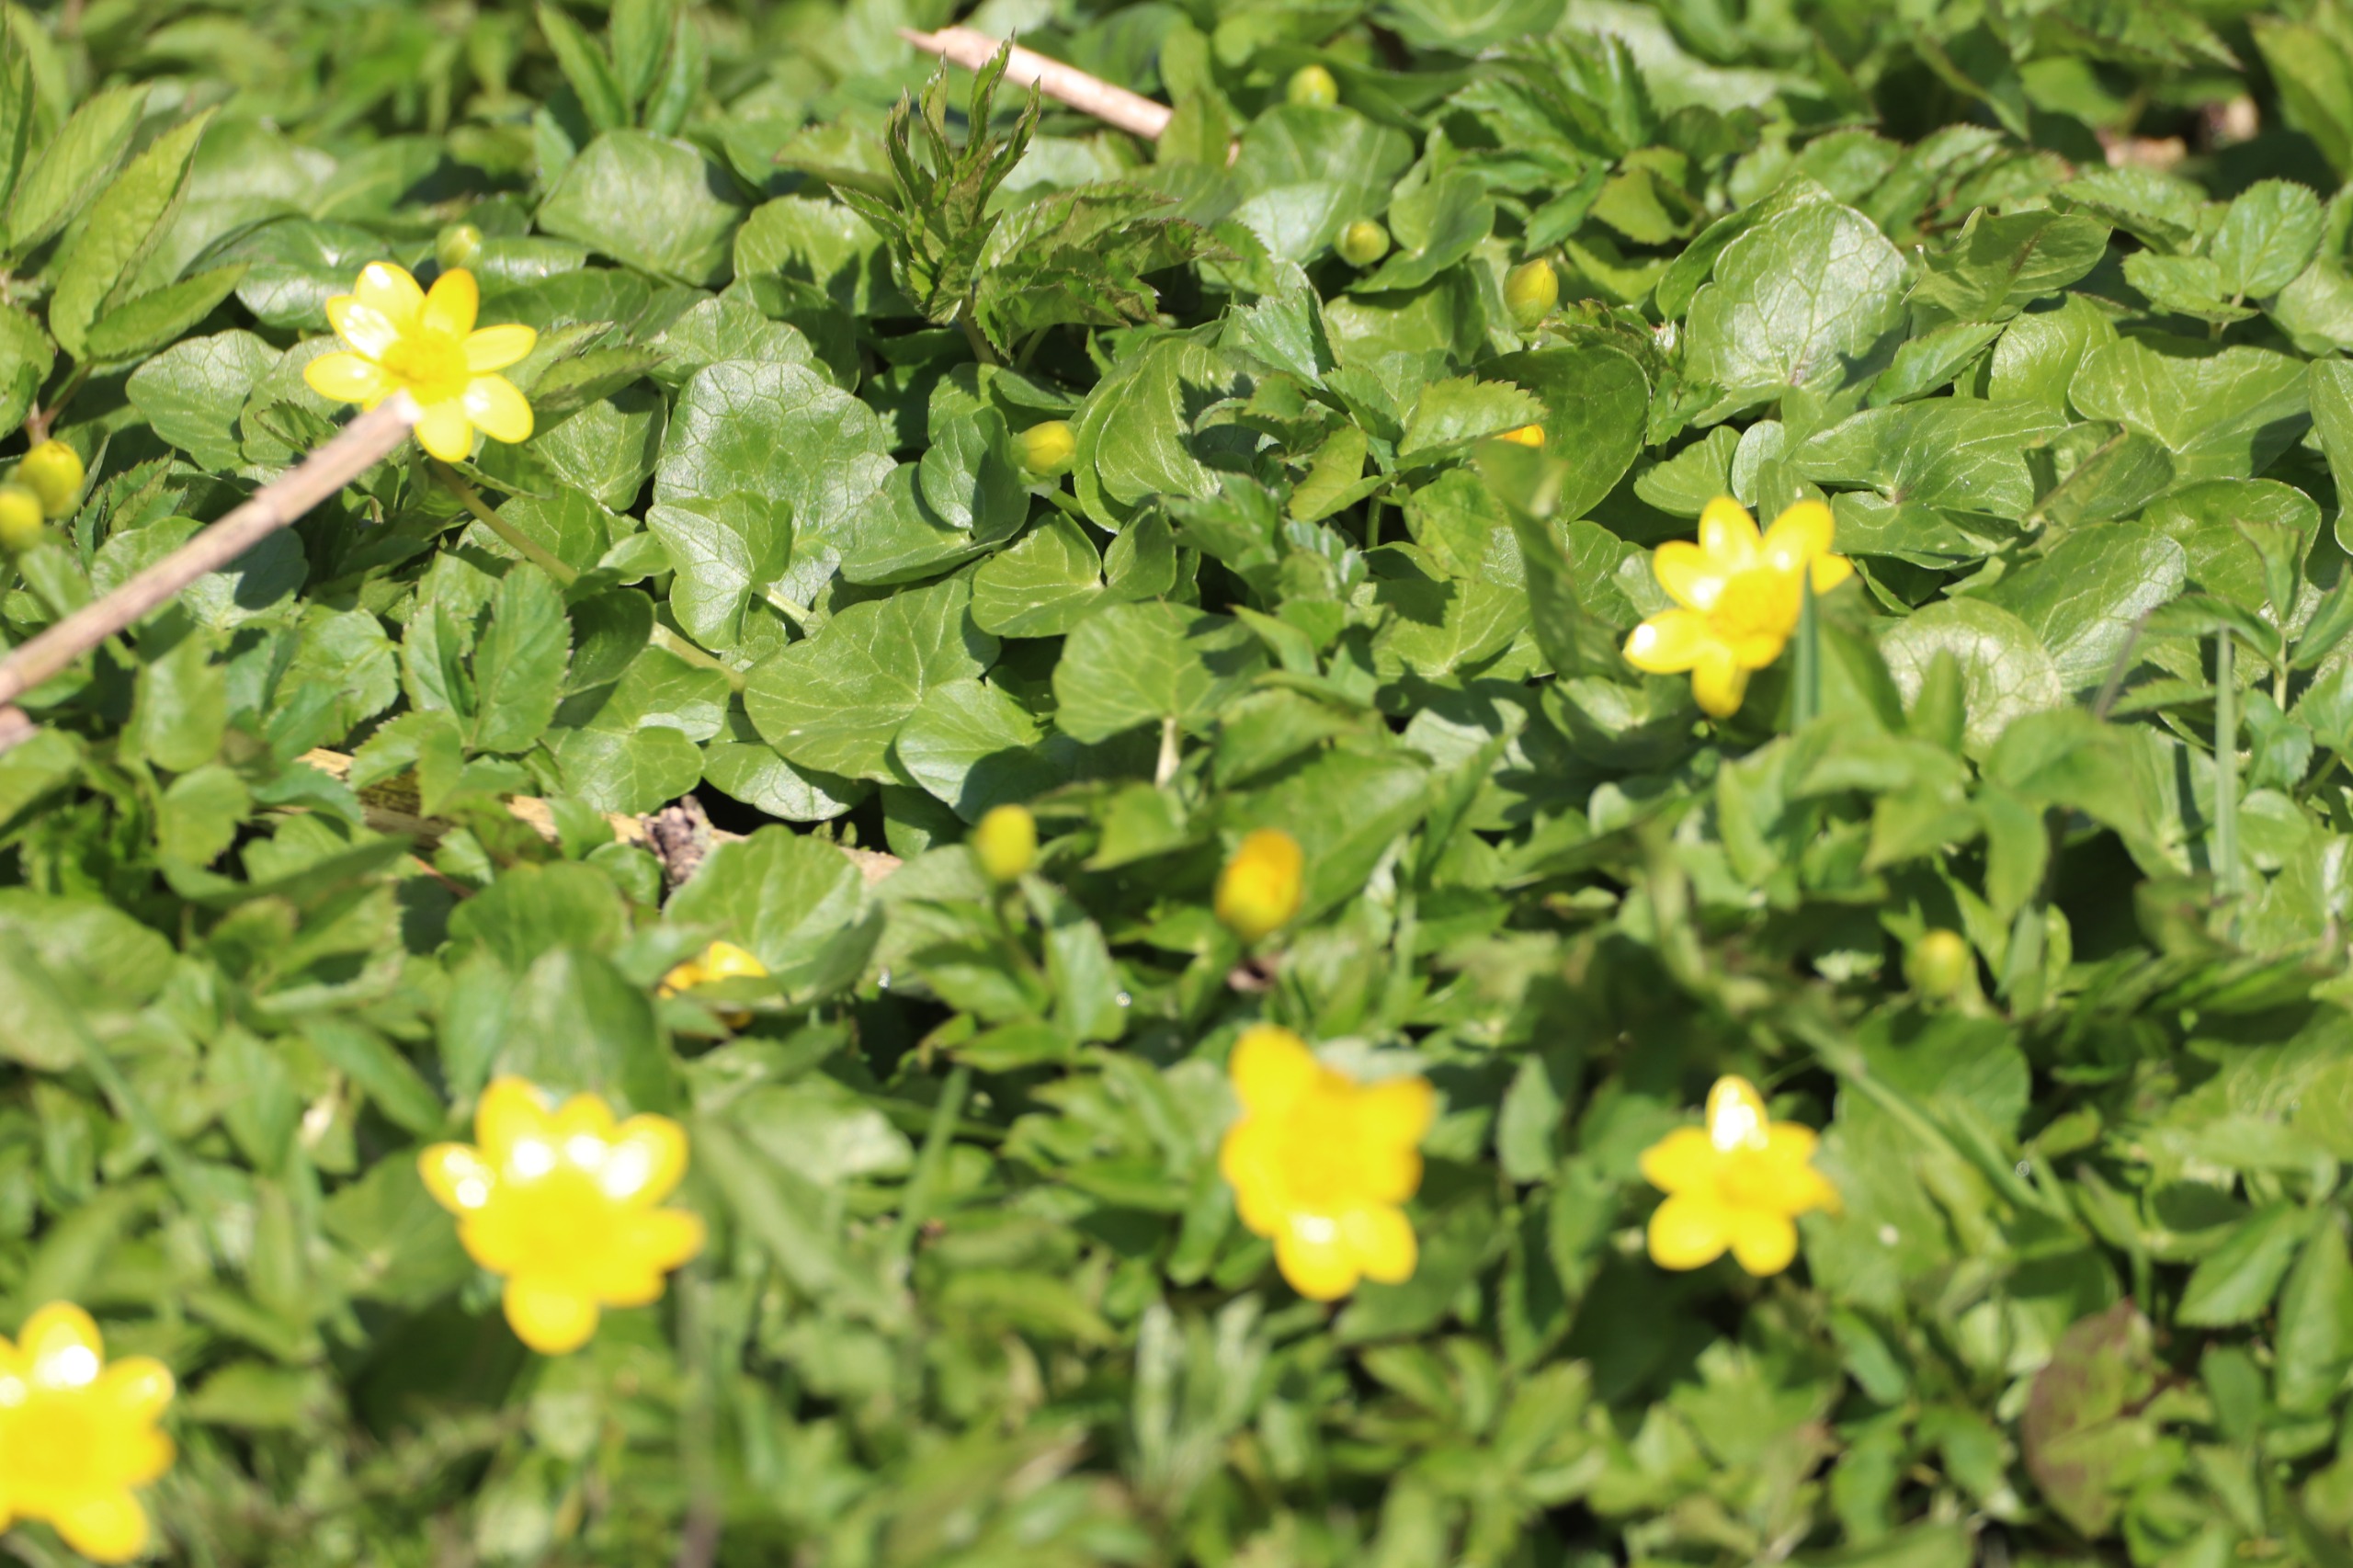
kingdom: Plantae
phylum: Tracheophyta
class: Magnoliopsida
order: Ranunculales
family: Ranunculaceae
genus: Ficaria
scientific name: Ficaria verna
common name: Vorterod
